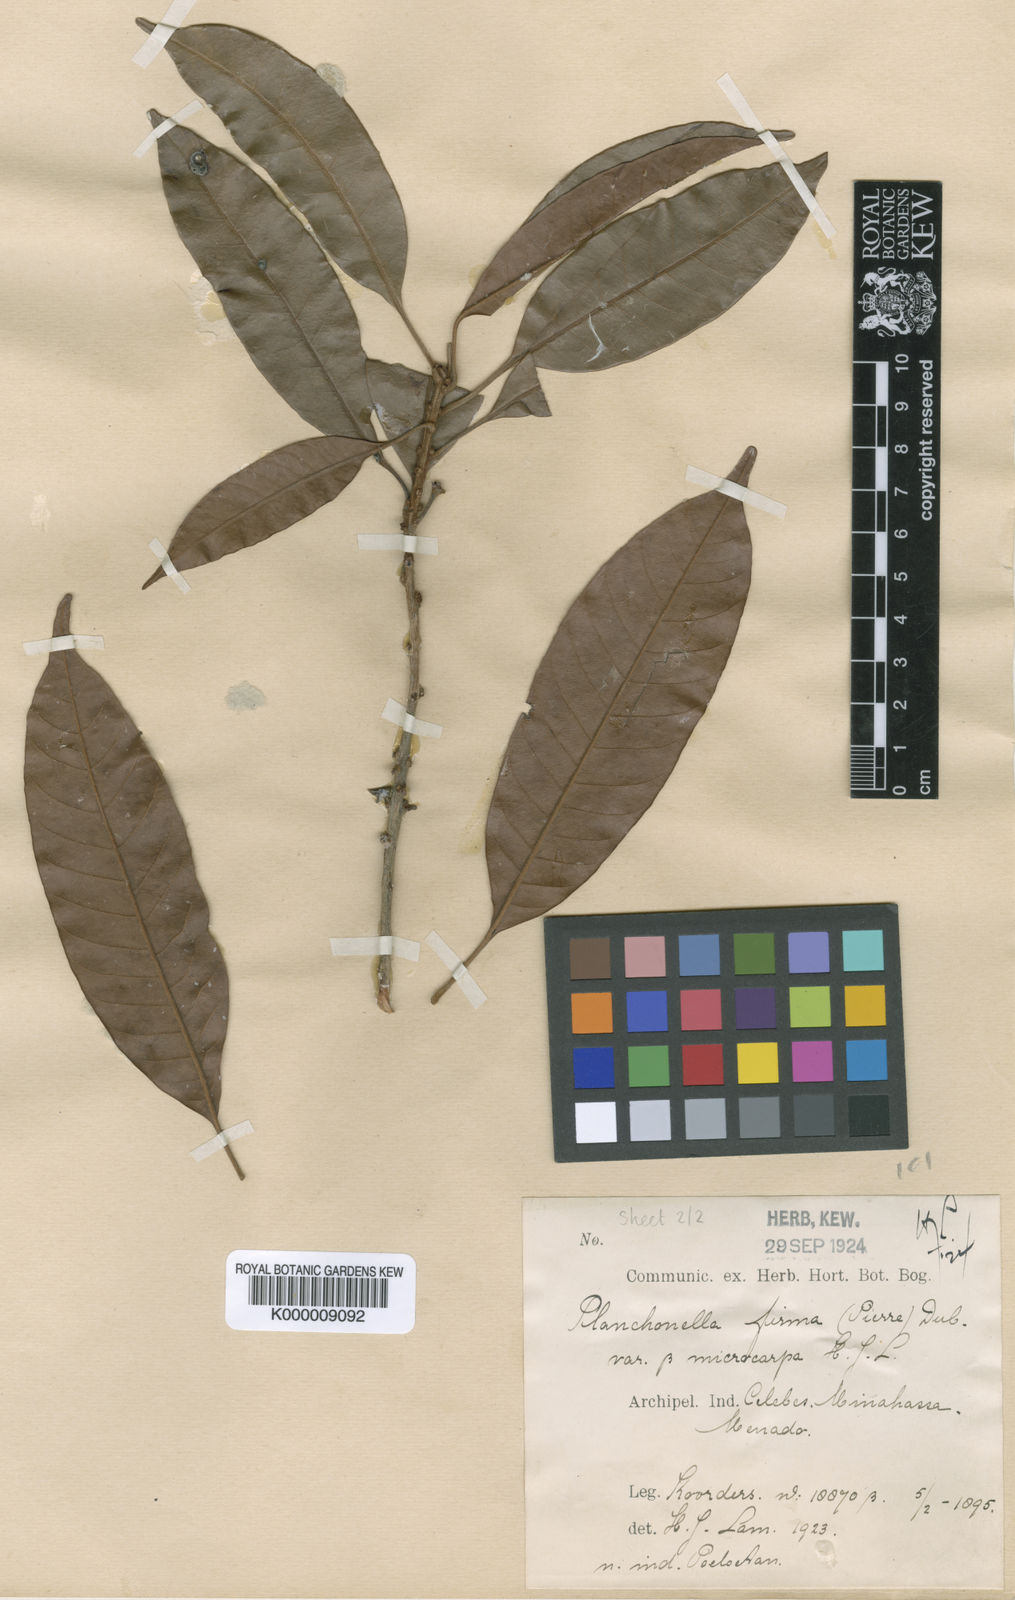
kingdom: Plantae
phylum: Tracheophyta
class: Magnoliopsida
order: Ericales
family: Sapotaceae
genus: Pleioluma
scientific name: Pleioluma firma
